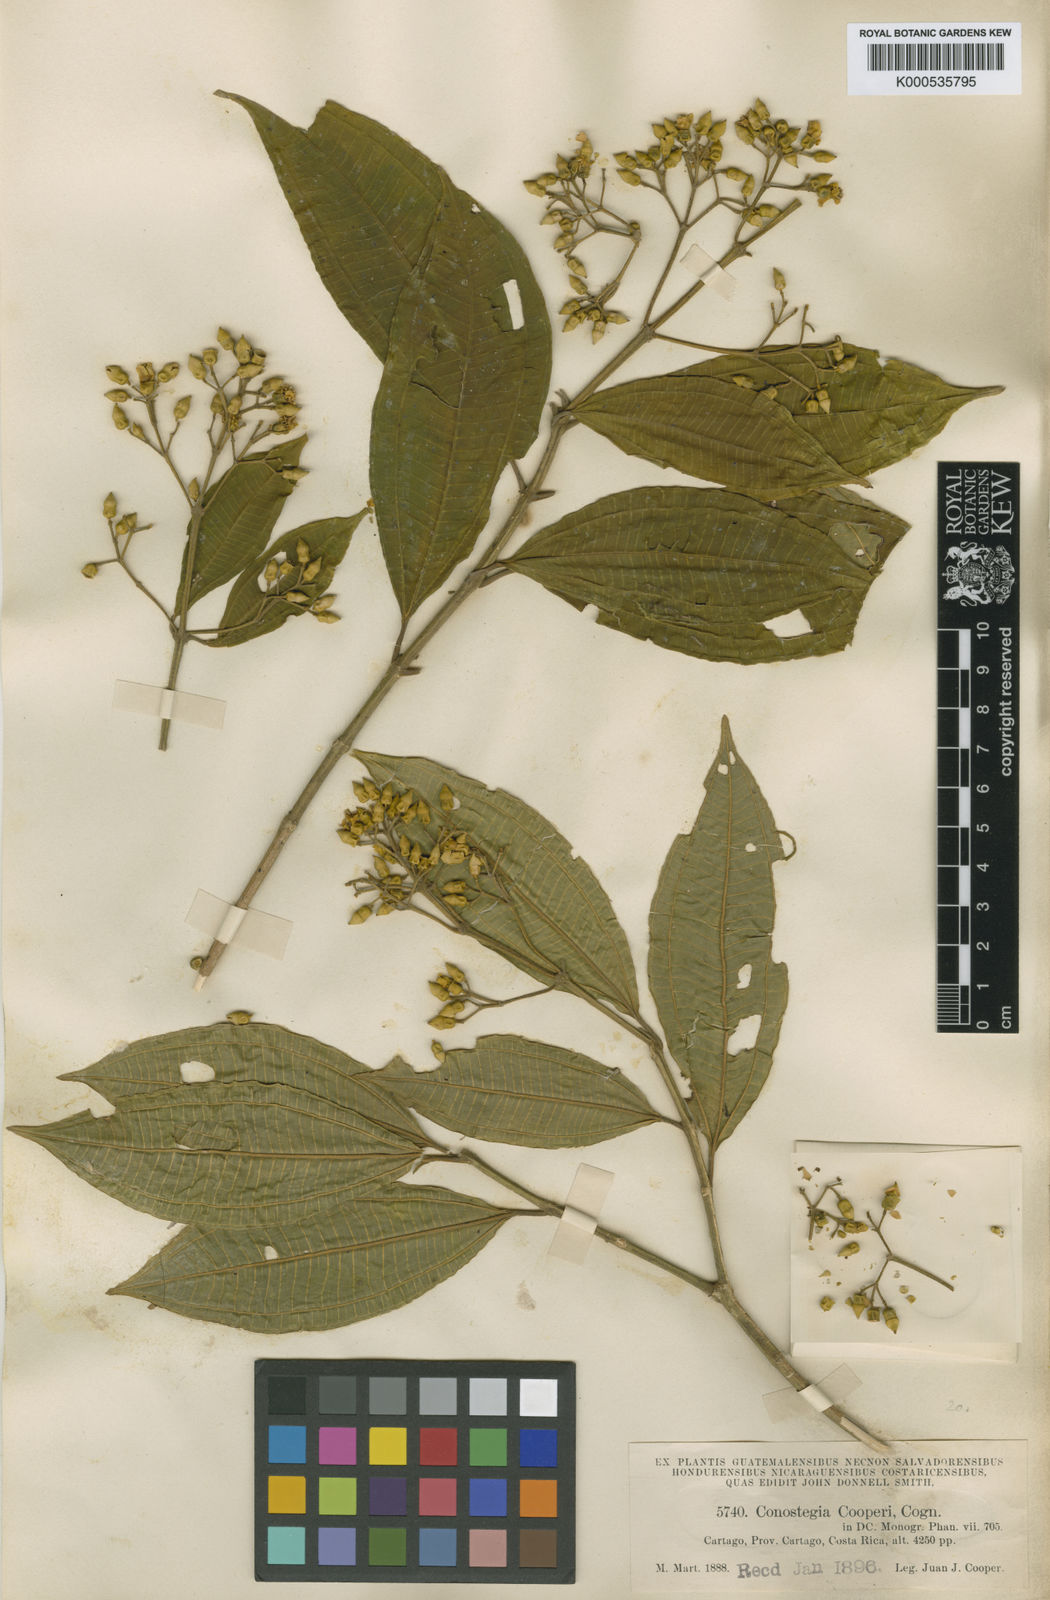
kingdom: Plantae
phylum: Tracheophyta
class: Magnoliopsida
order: Myrtales
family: Melastomataceae
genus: Miconia
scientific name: Miconia cooperi
